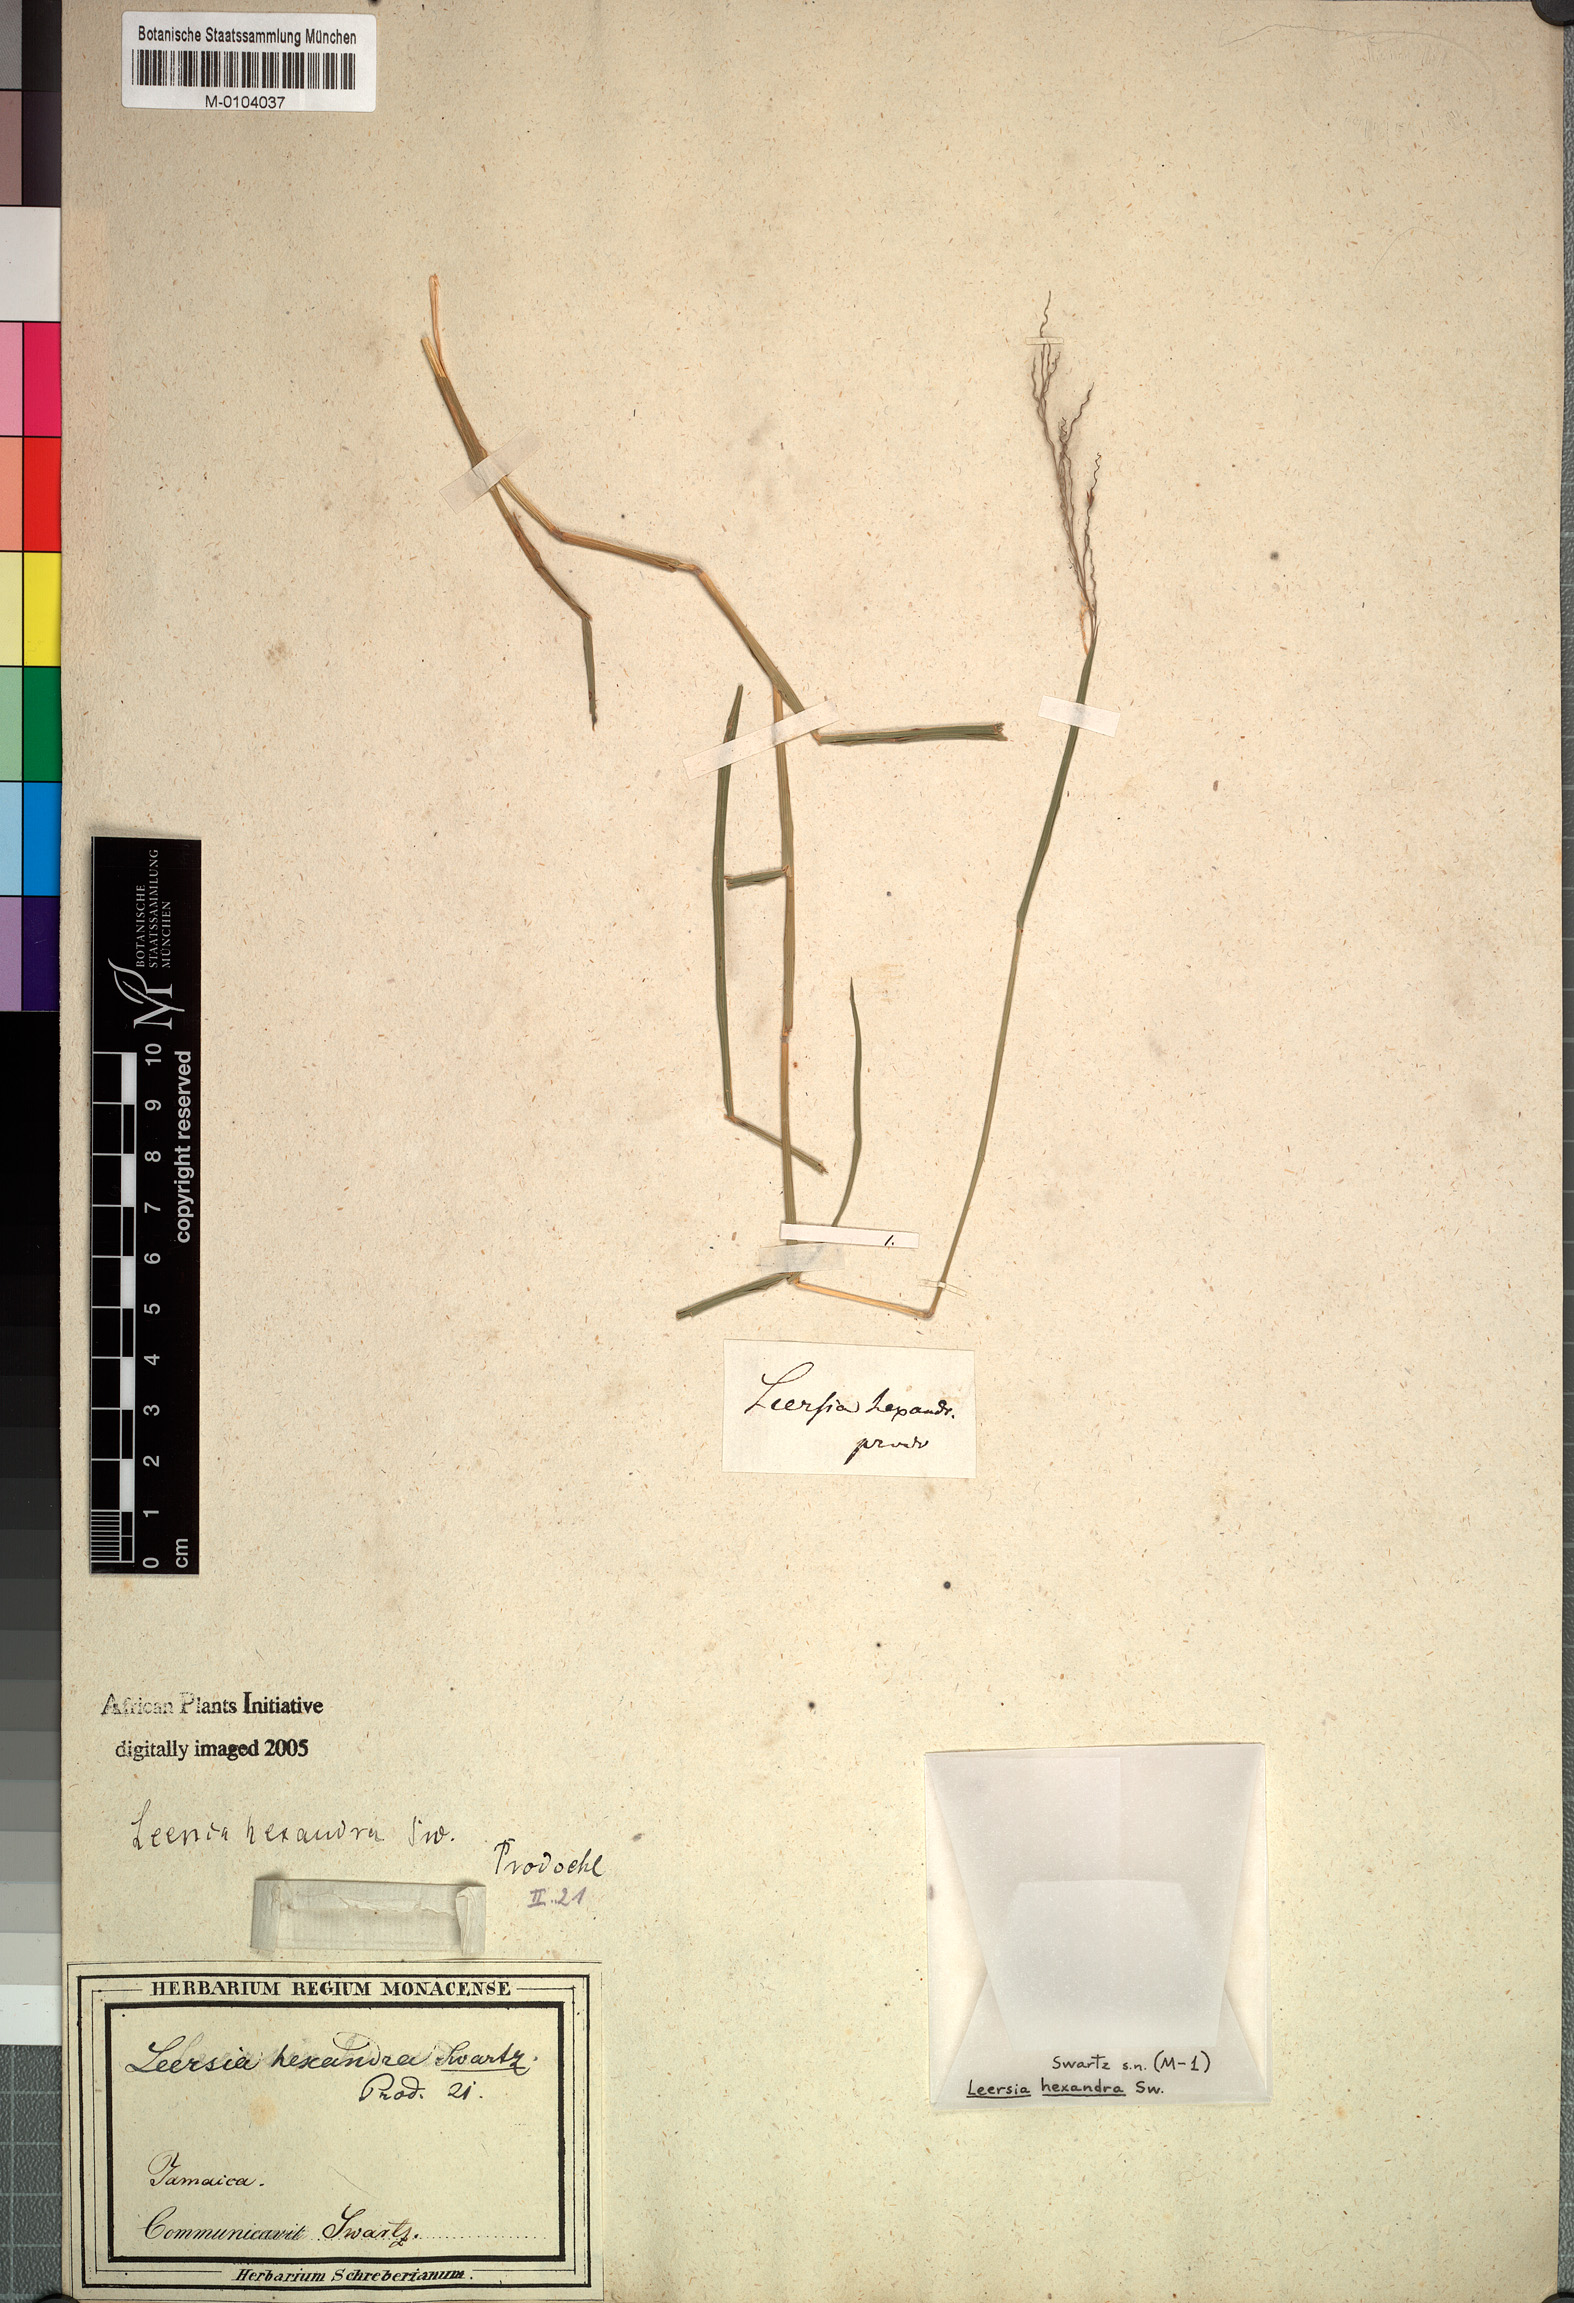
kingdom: Plantae
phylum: Tracheophyta
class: Liliopsida
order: Poales
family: Poaceae
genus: Leersia
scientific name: Leersia hexandra
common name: Southern cut grass
